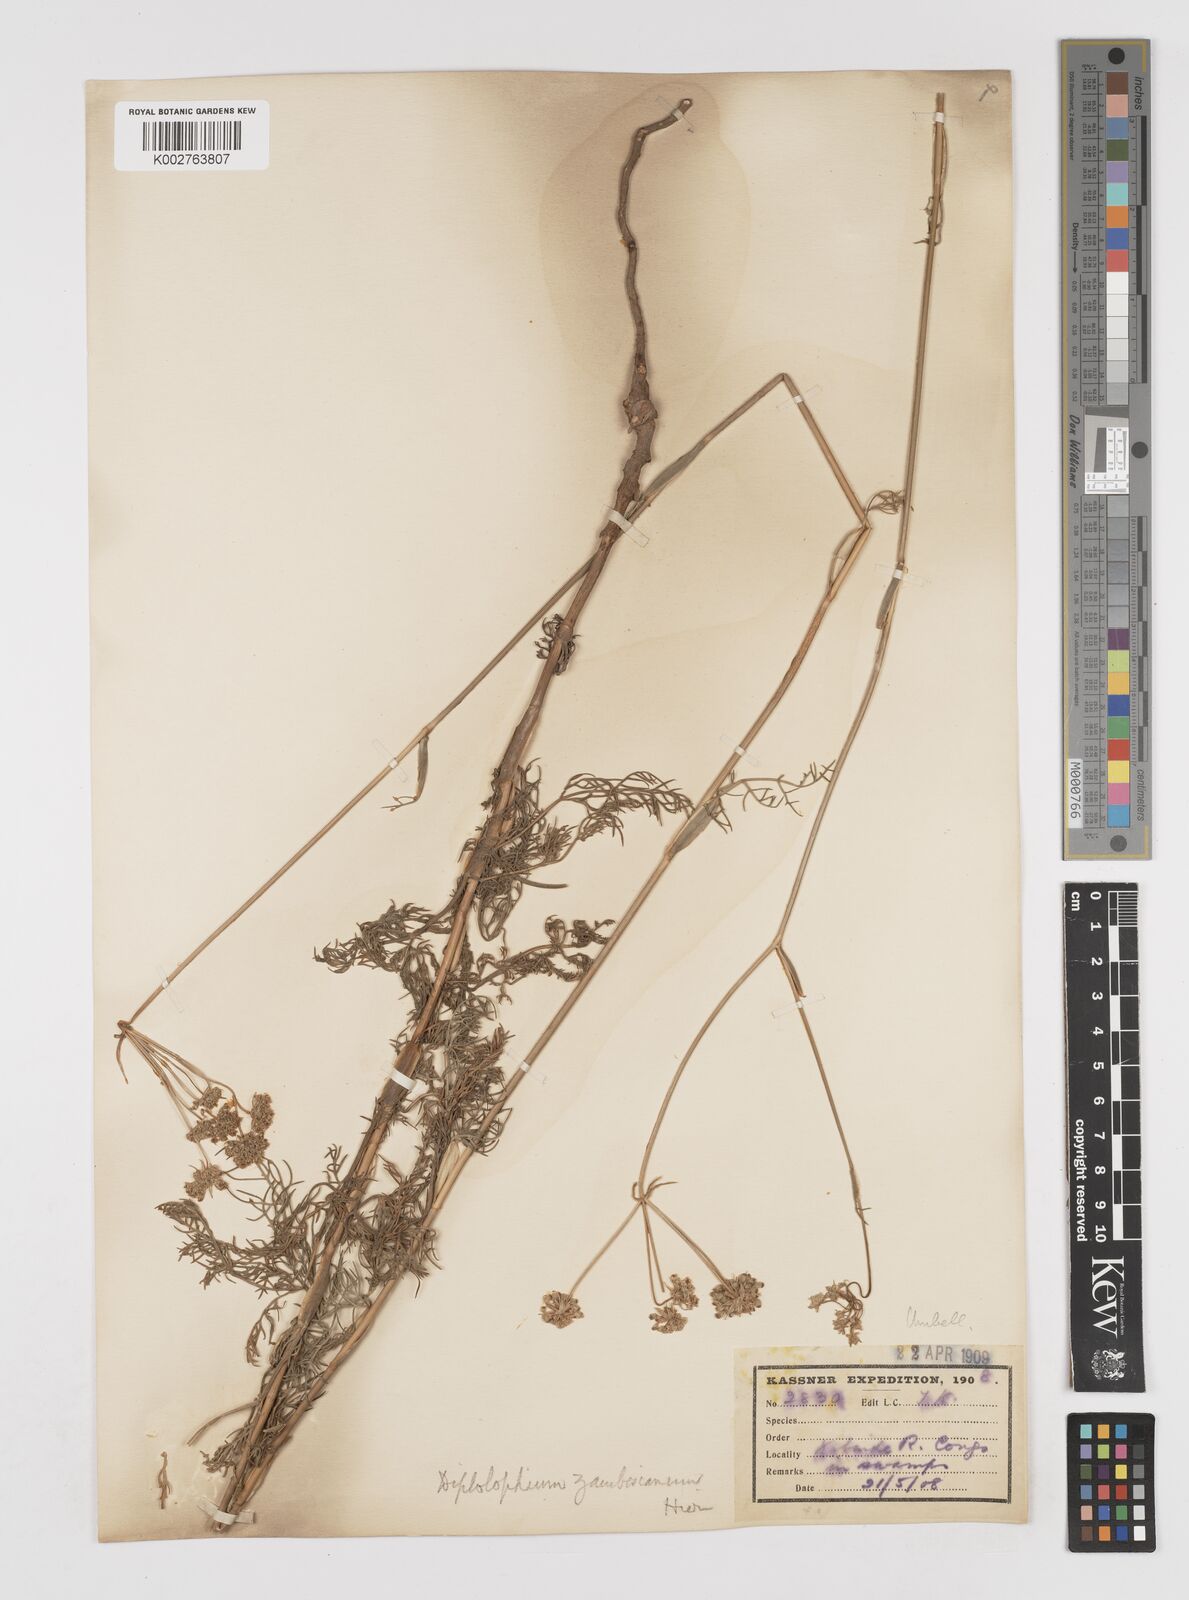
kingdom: Plantae
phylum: Tracheophyta
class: Magnoliopsida
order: Apiales
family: Apiaceae
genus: Diplolophium
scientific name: Diplolophium zambesianum
